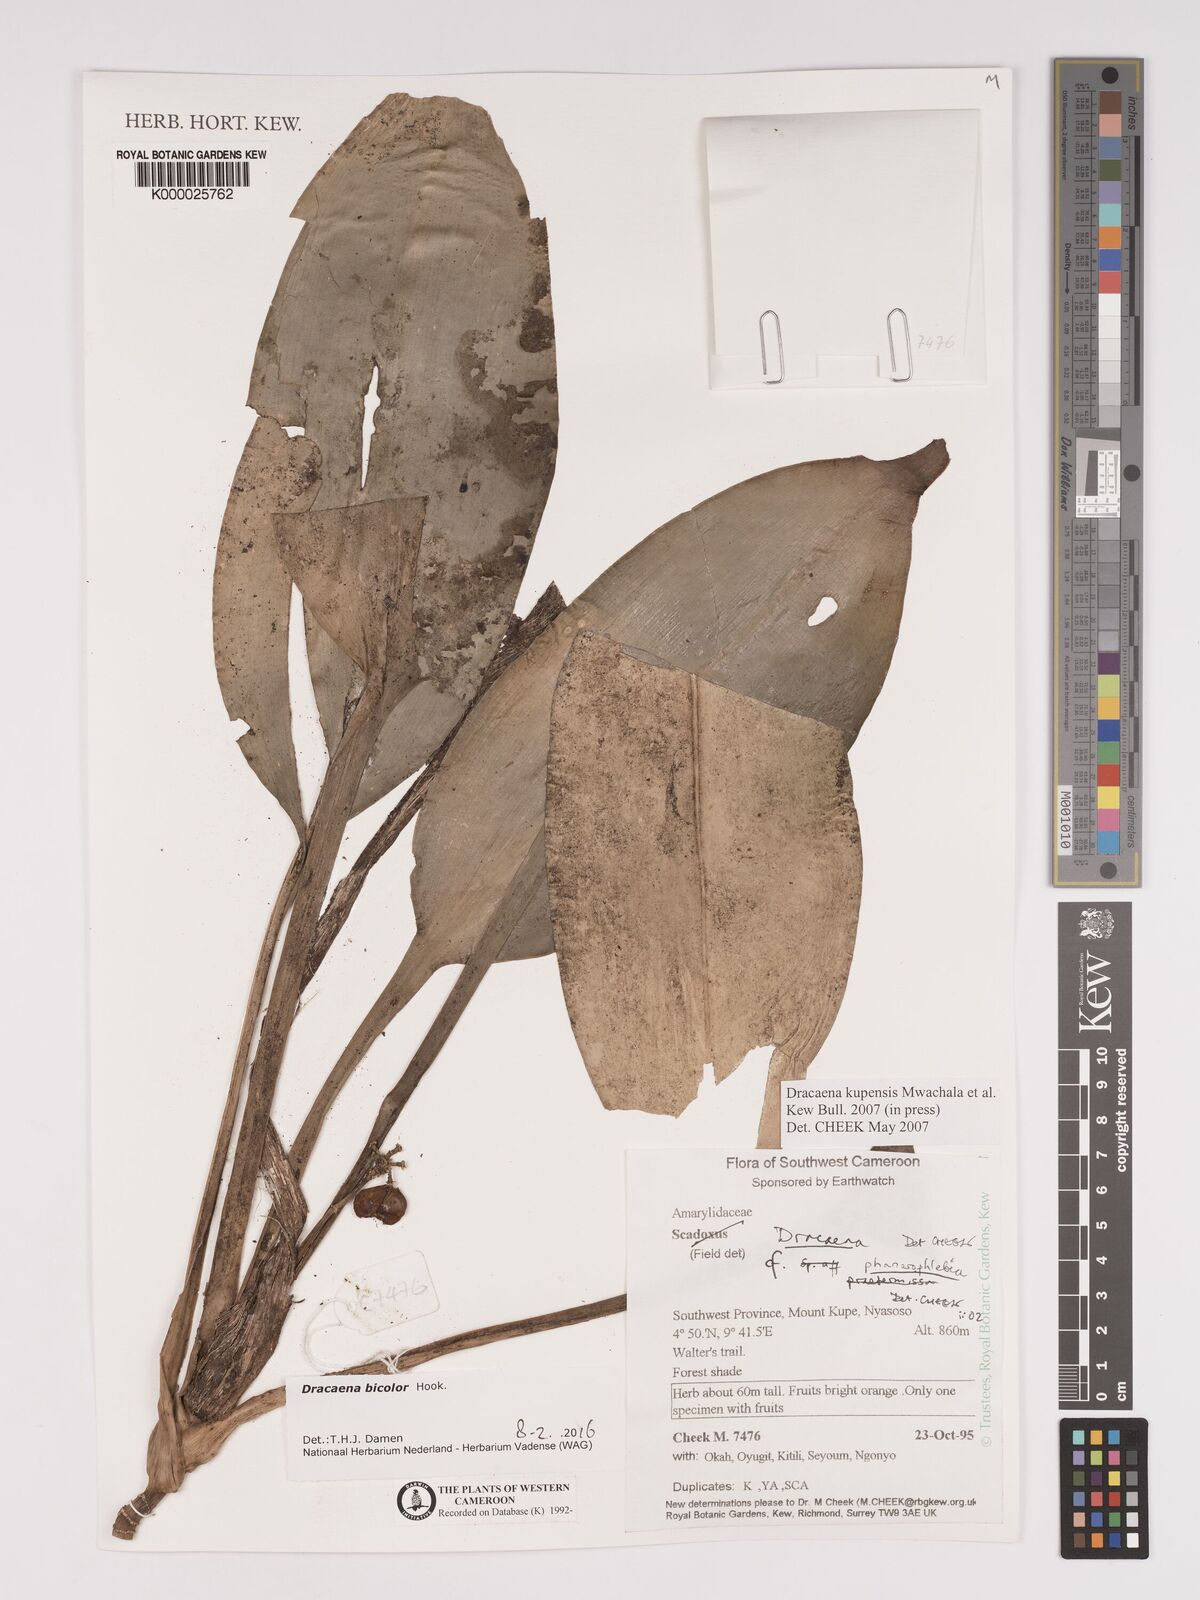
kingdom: Plantae
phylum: Tracheophyta
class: Liliopsida
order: Asparagales
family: Asparagaceae
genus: Dracaena
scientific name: Dracaena kupensis
